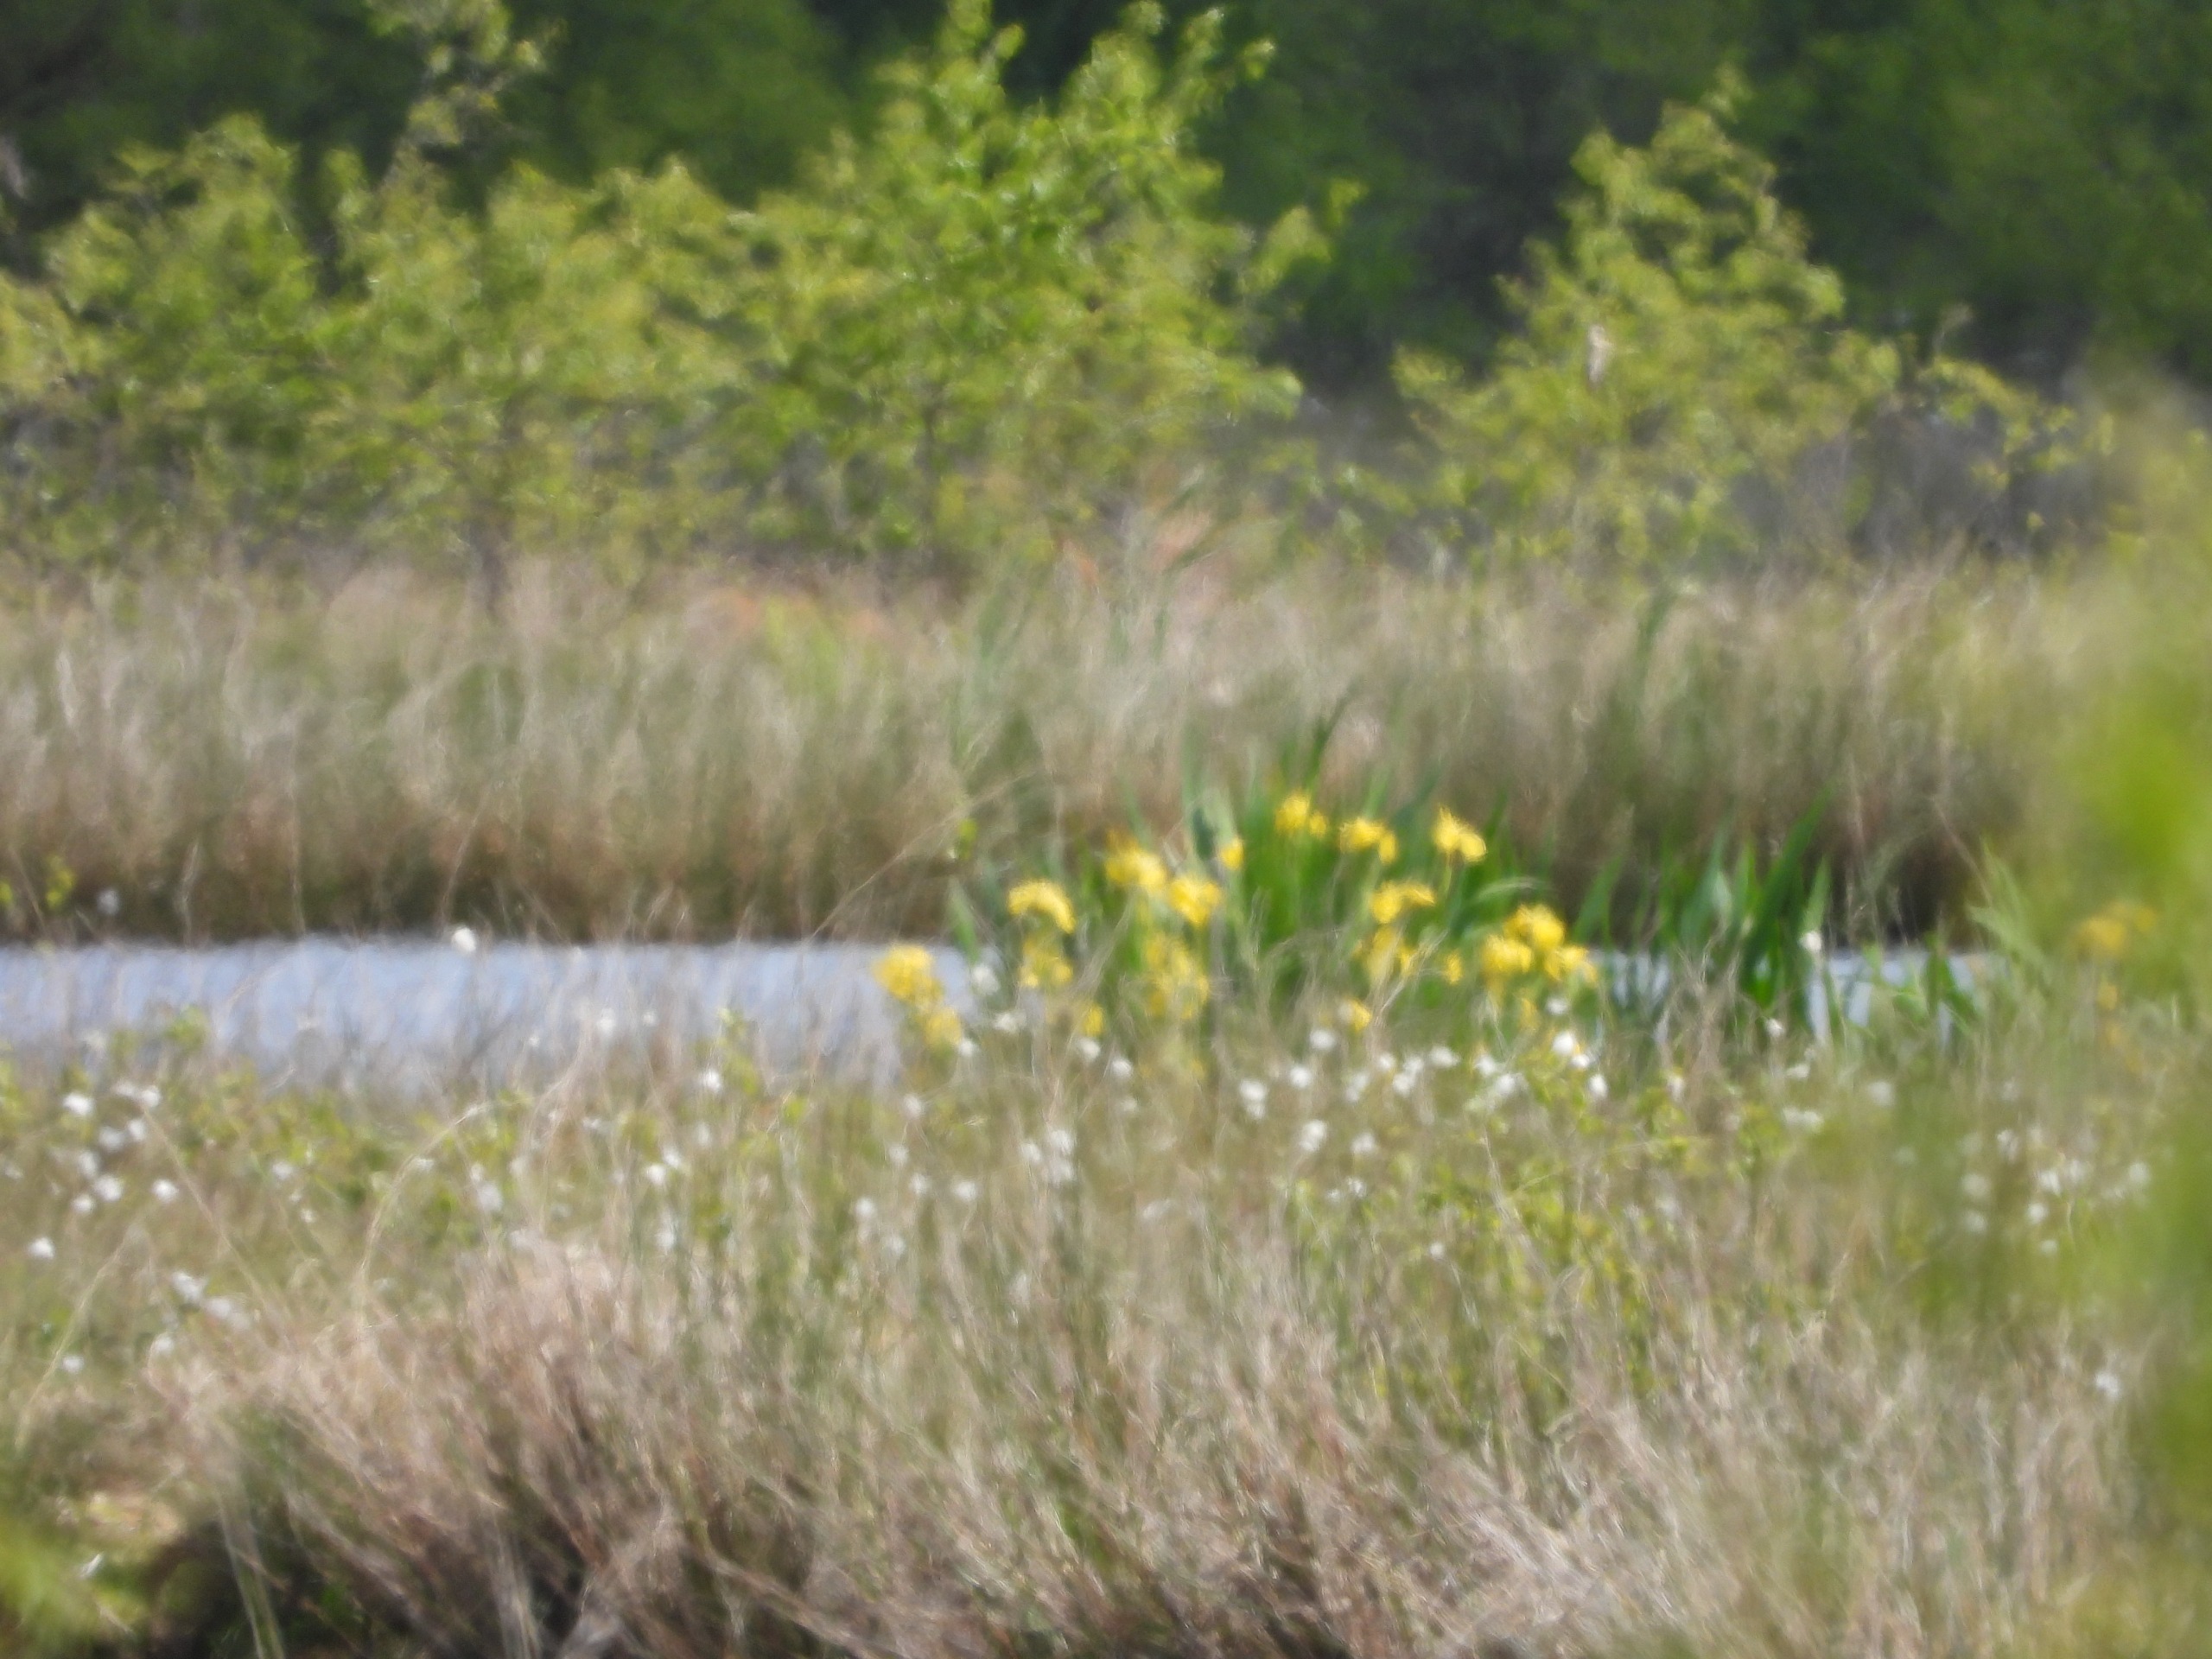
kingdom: Plantae
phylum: Tracheophyta
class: Liliopsida
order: Asparagales
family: Iridaceae
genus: Iris
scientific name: Iris pseudacorus
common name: Gul iris
